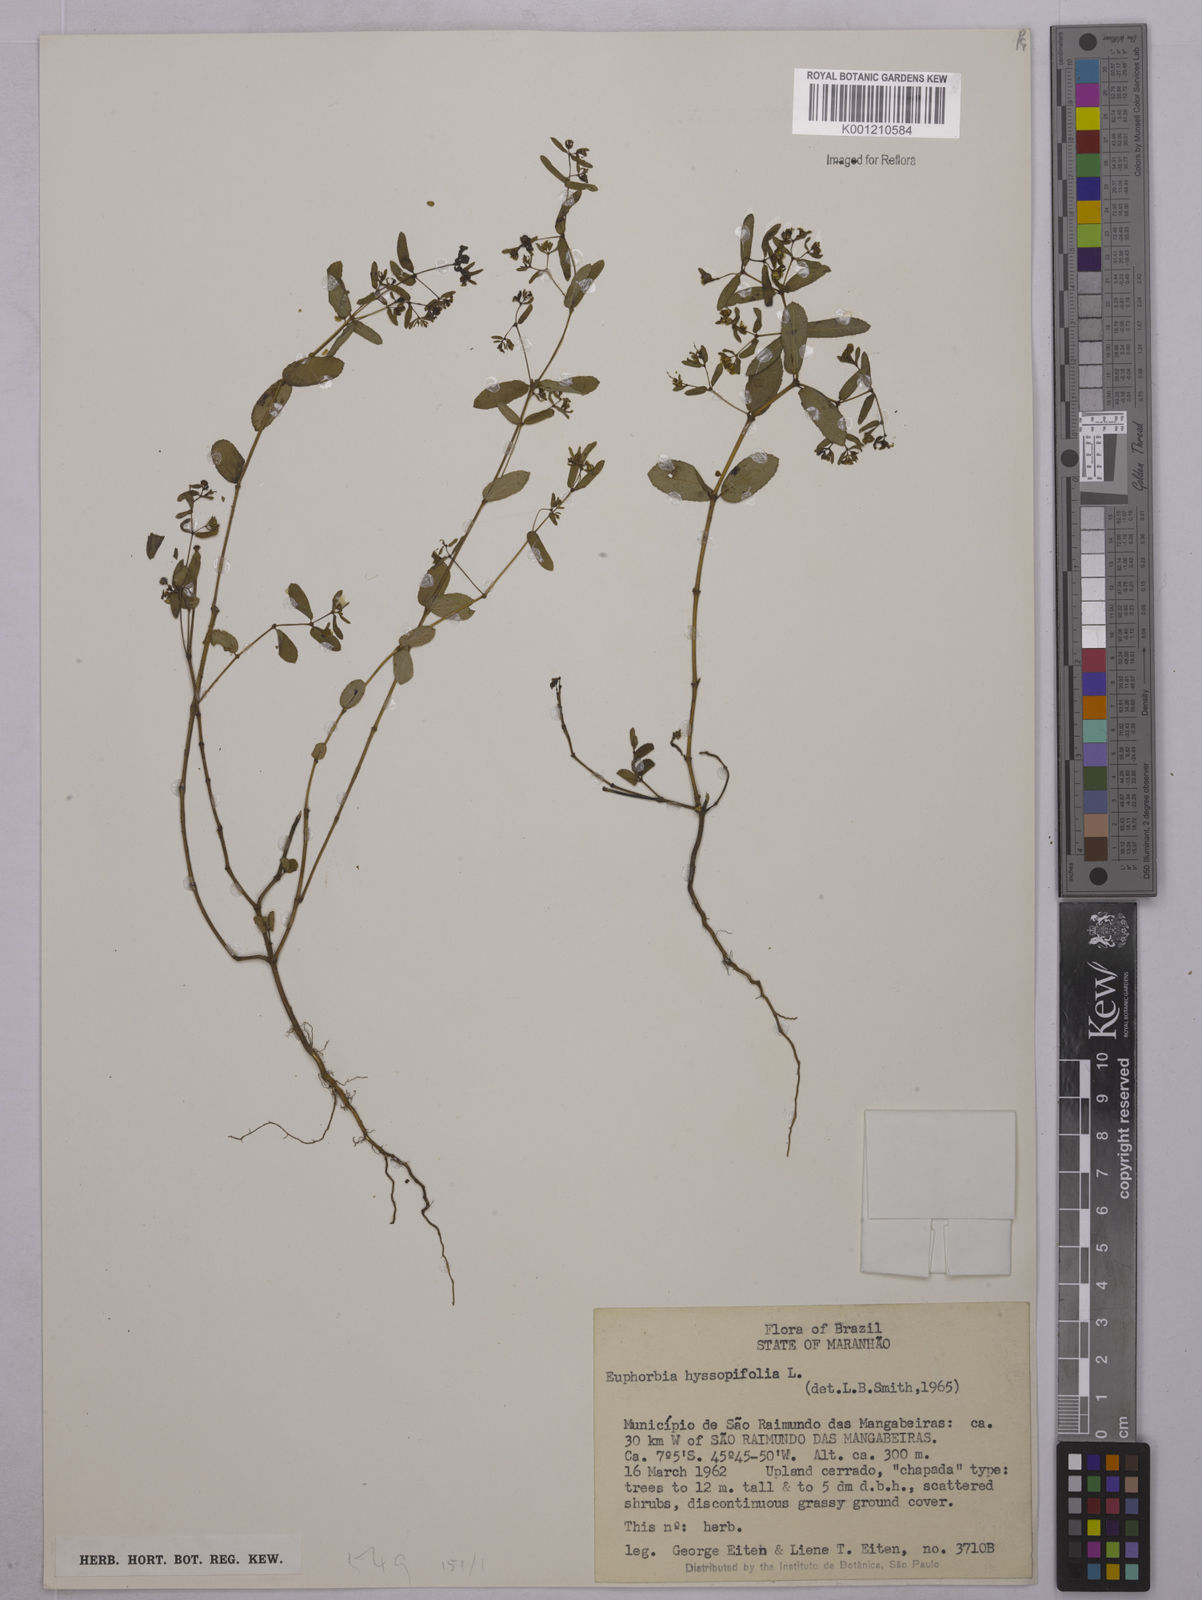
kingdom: Plantae
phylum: Tracheophyta
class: Magnoliopsida
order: Malpighiales
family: Euphorbiaceae
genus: Euphorbia
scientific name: Euphorbia hyssopifolia
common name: Hyssopleaf sandmat
